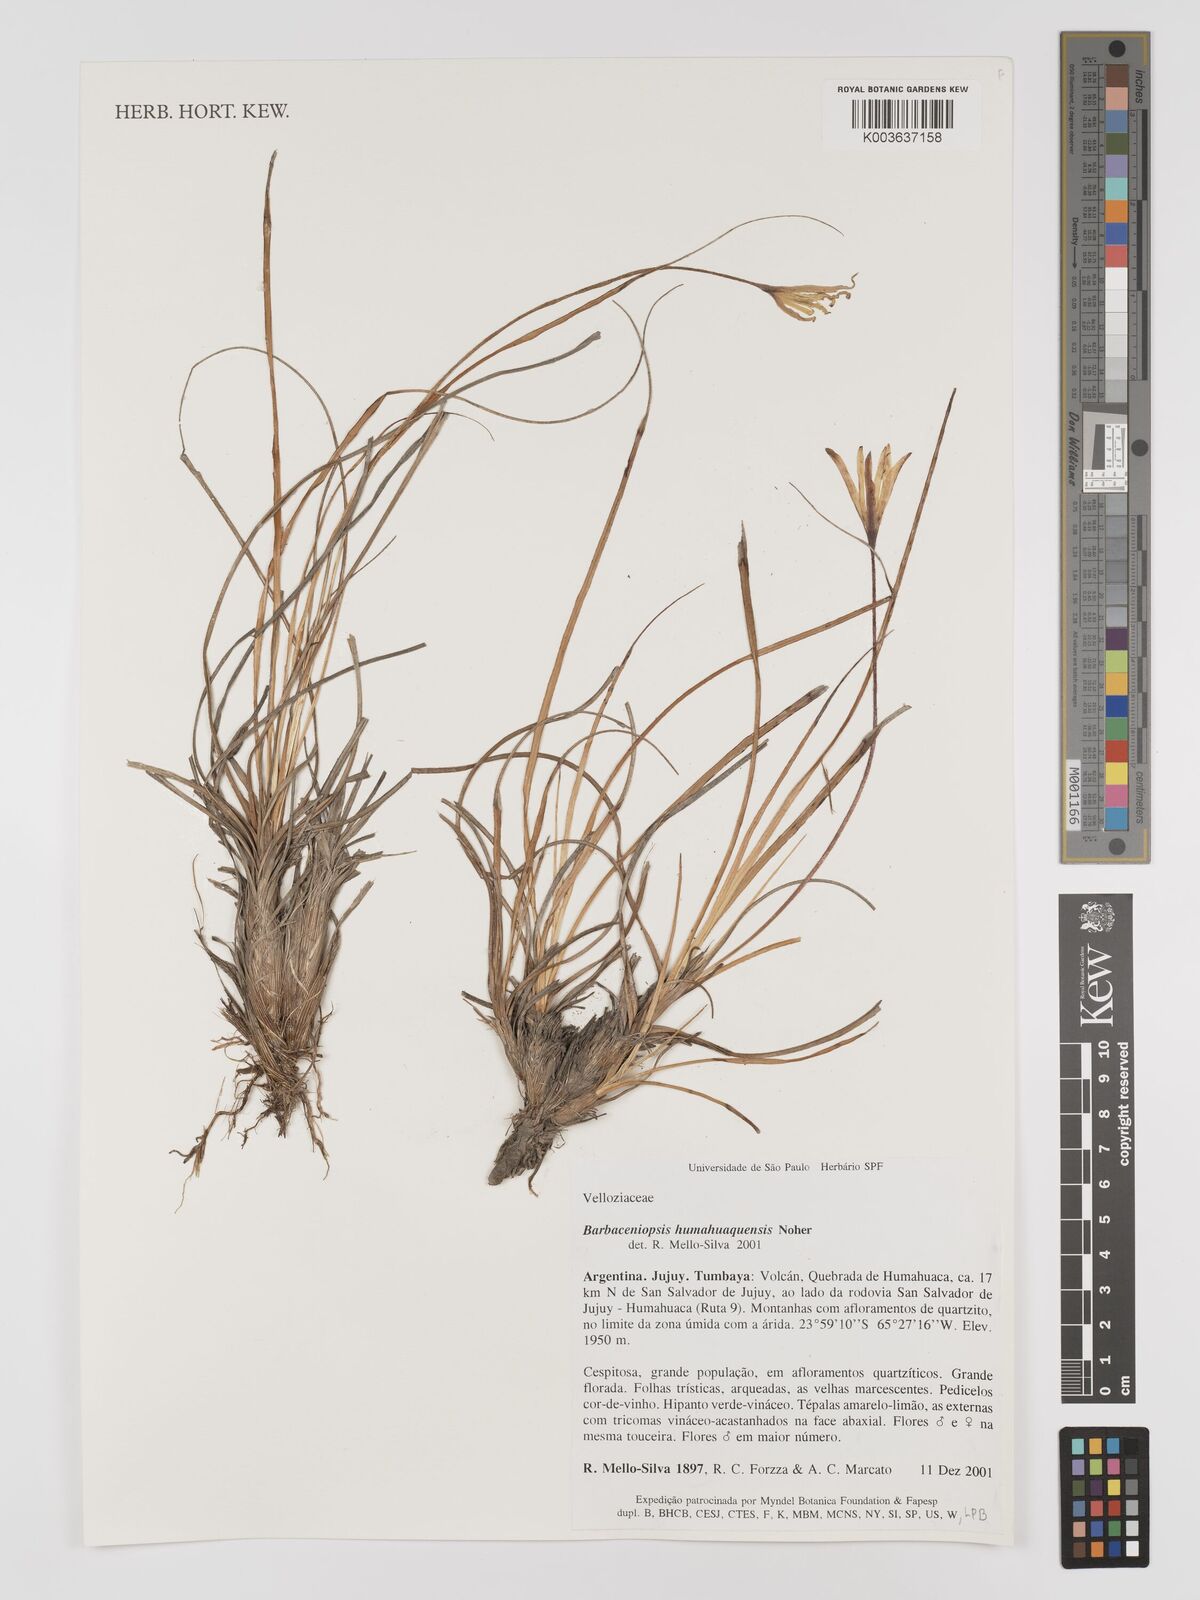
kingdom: Plantae
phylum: Tracheophyta
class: Liliopsida
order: Pandanales
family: Velloziaceae
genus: Xerophyta
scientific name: Xerophyta
